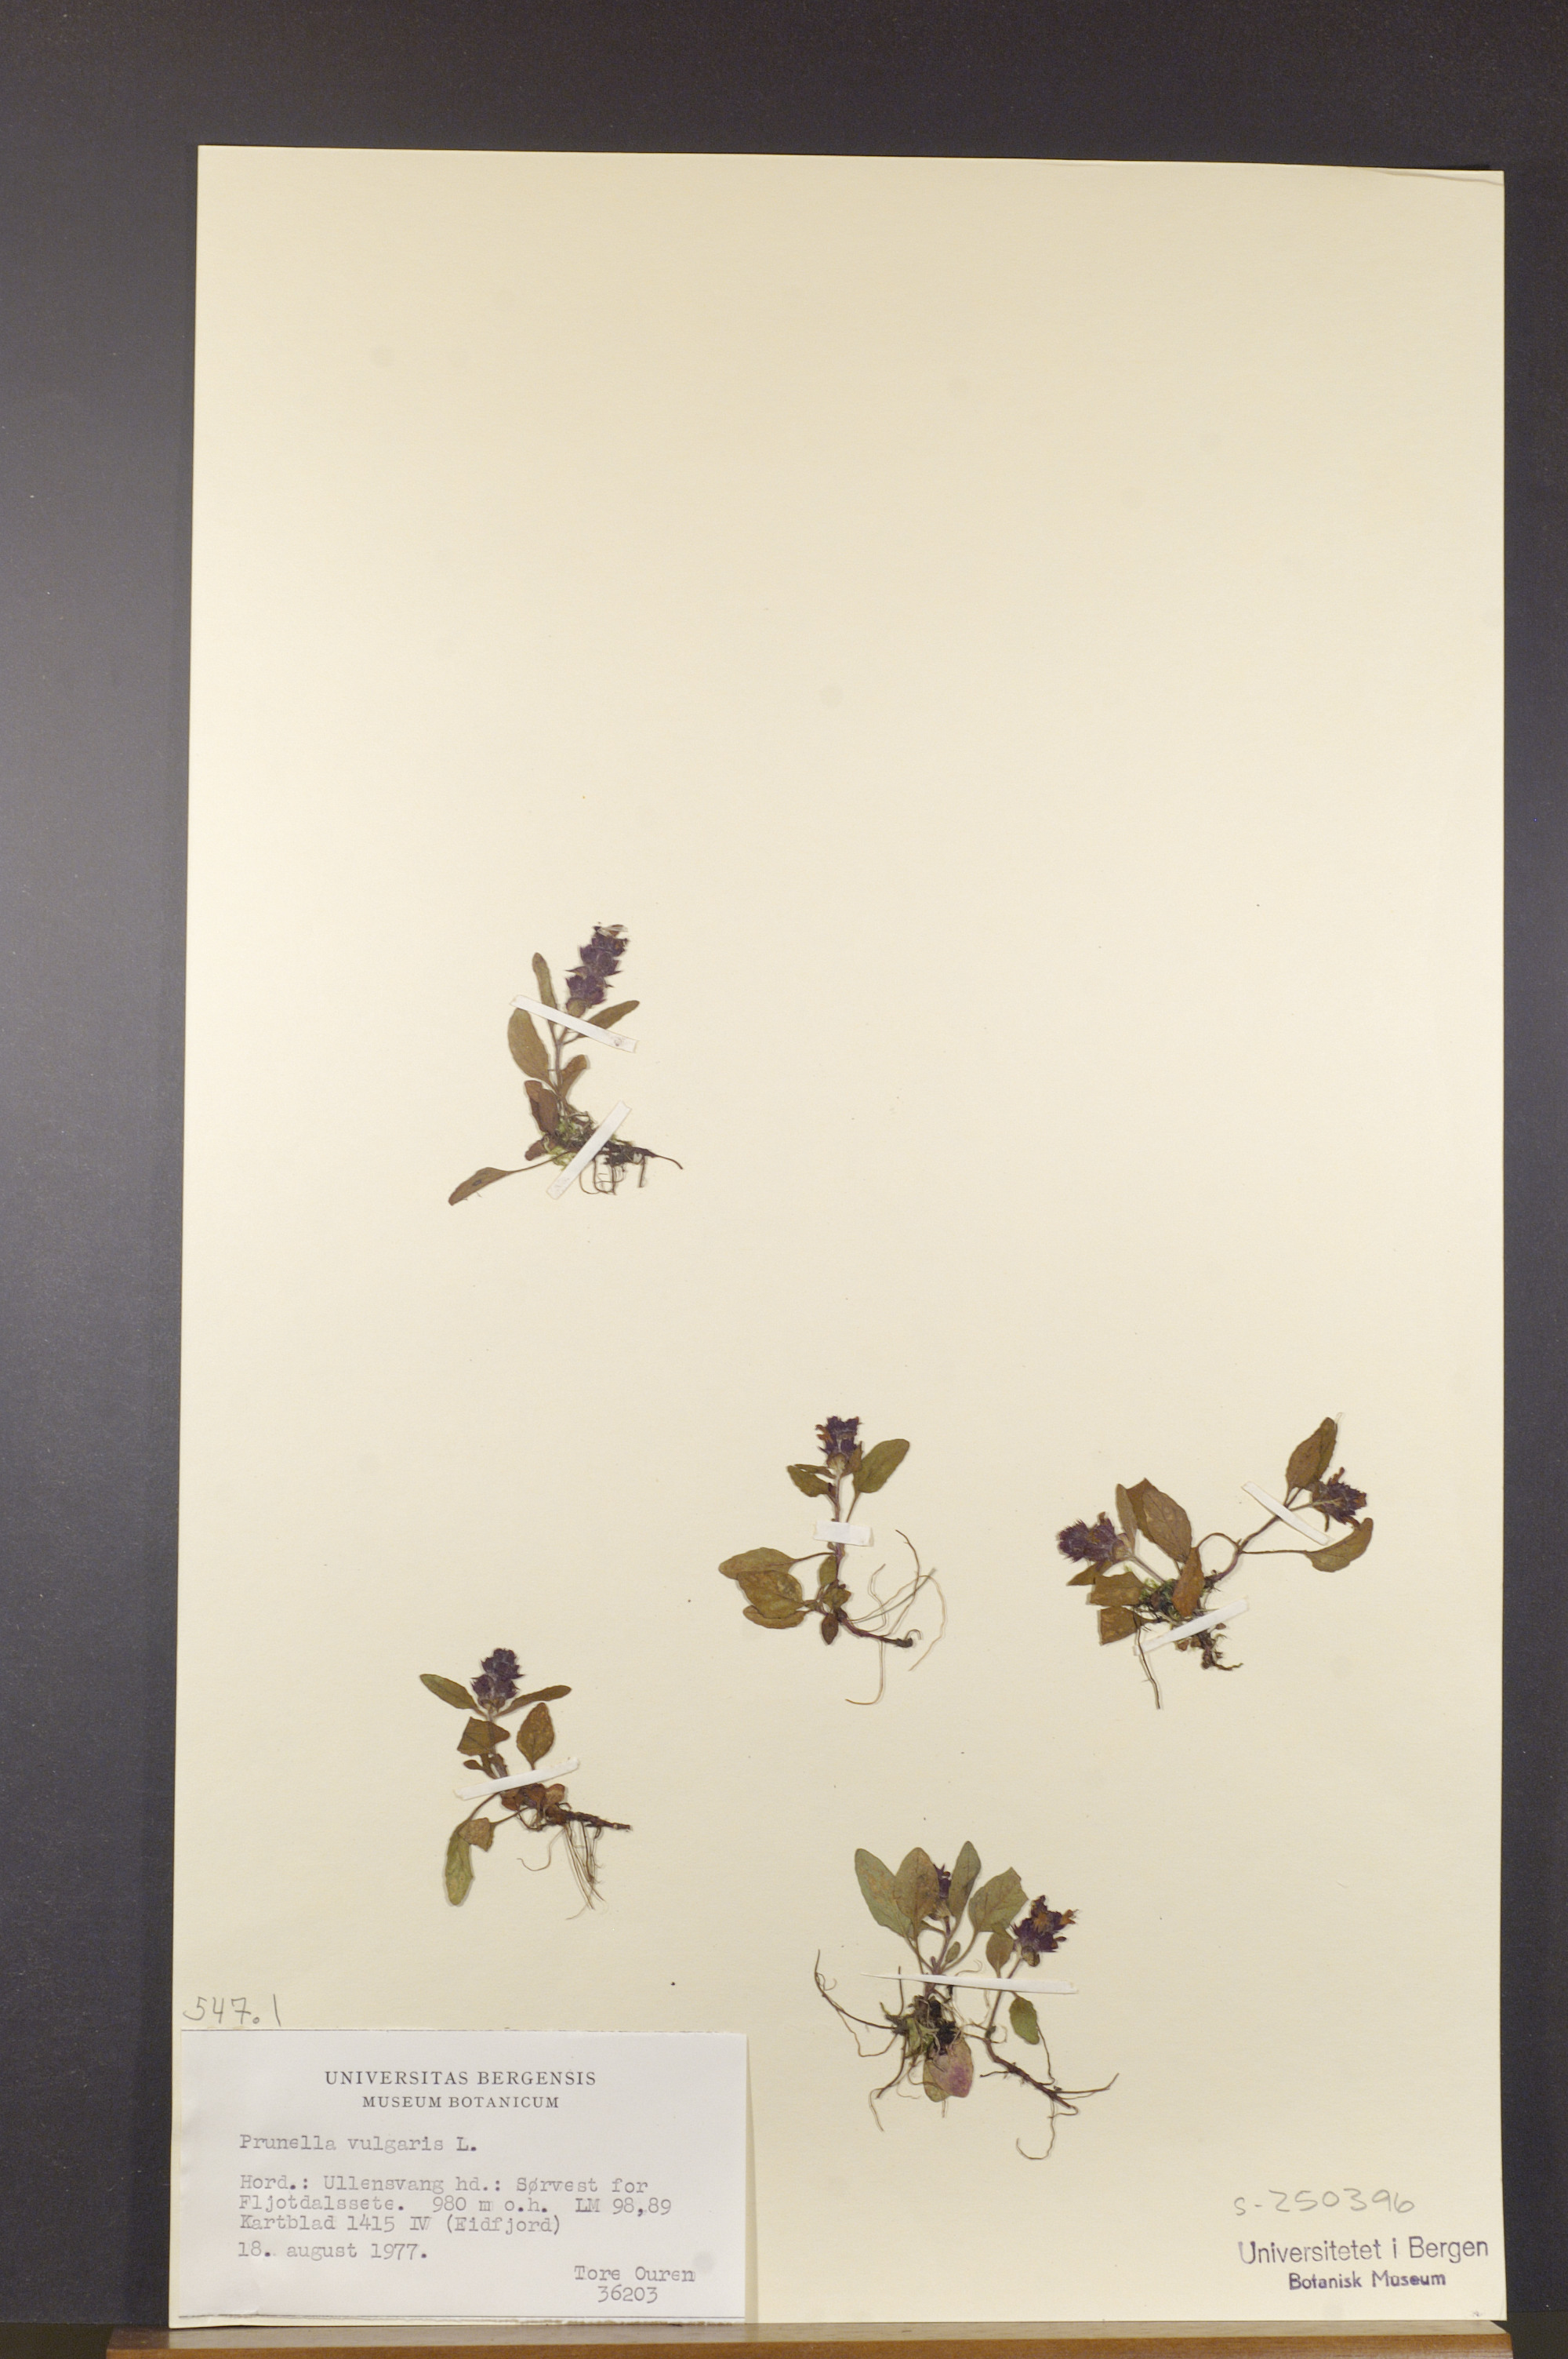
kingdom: Plantae
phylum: Tracheophyta
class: Magnoliopsida
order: Lamiales
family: Lamiaceae
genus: Prunella
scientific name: Prunella vulgaris
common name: Heal-all
